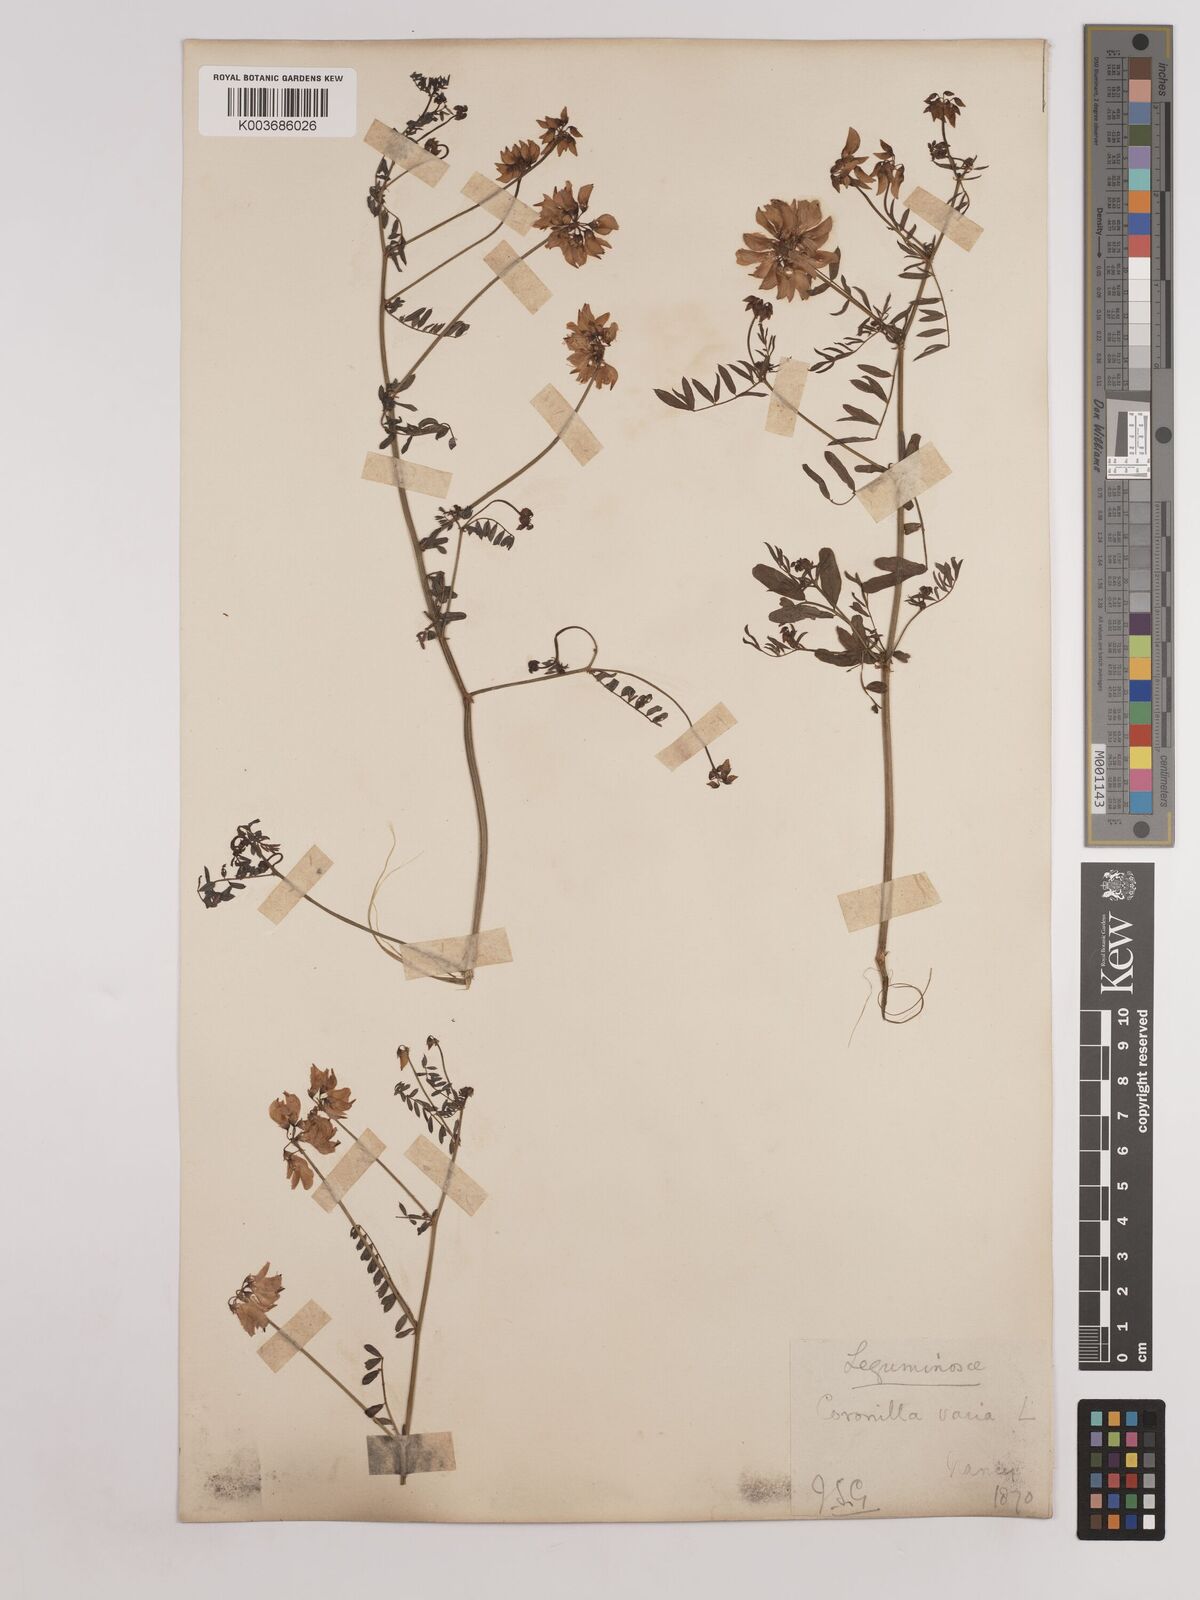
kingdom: Plantae
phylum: Tracheophyta
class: Magnoliopsida
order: Fabales
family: Fabaceae
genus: Coronilla
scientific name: Coronilla varia
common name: Crownvetch
